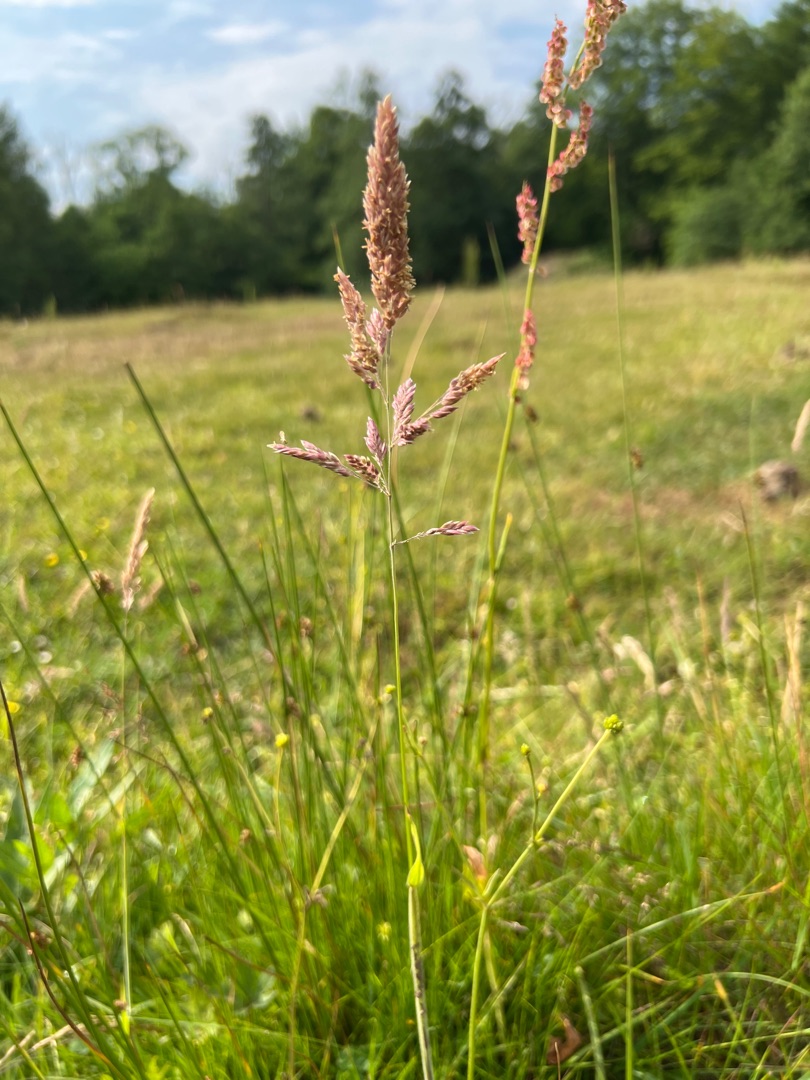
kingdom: Plantae
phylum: Tracheophyta
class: Liliopsida
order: Poales
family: Poaceae
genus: Holcus
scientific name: Holcus lanatus
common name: Fløjlsgræs
